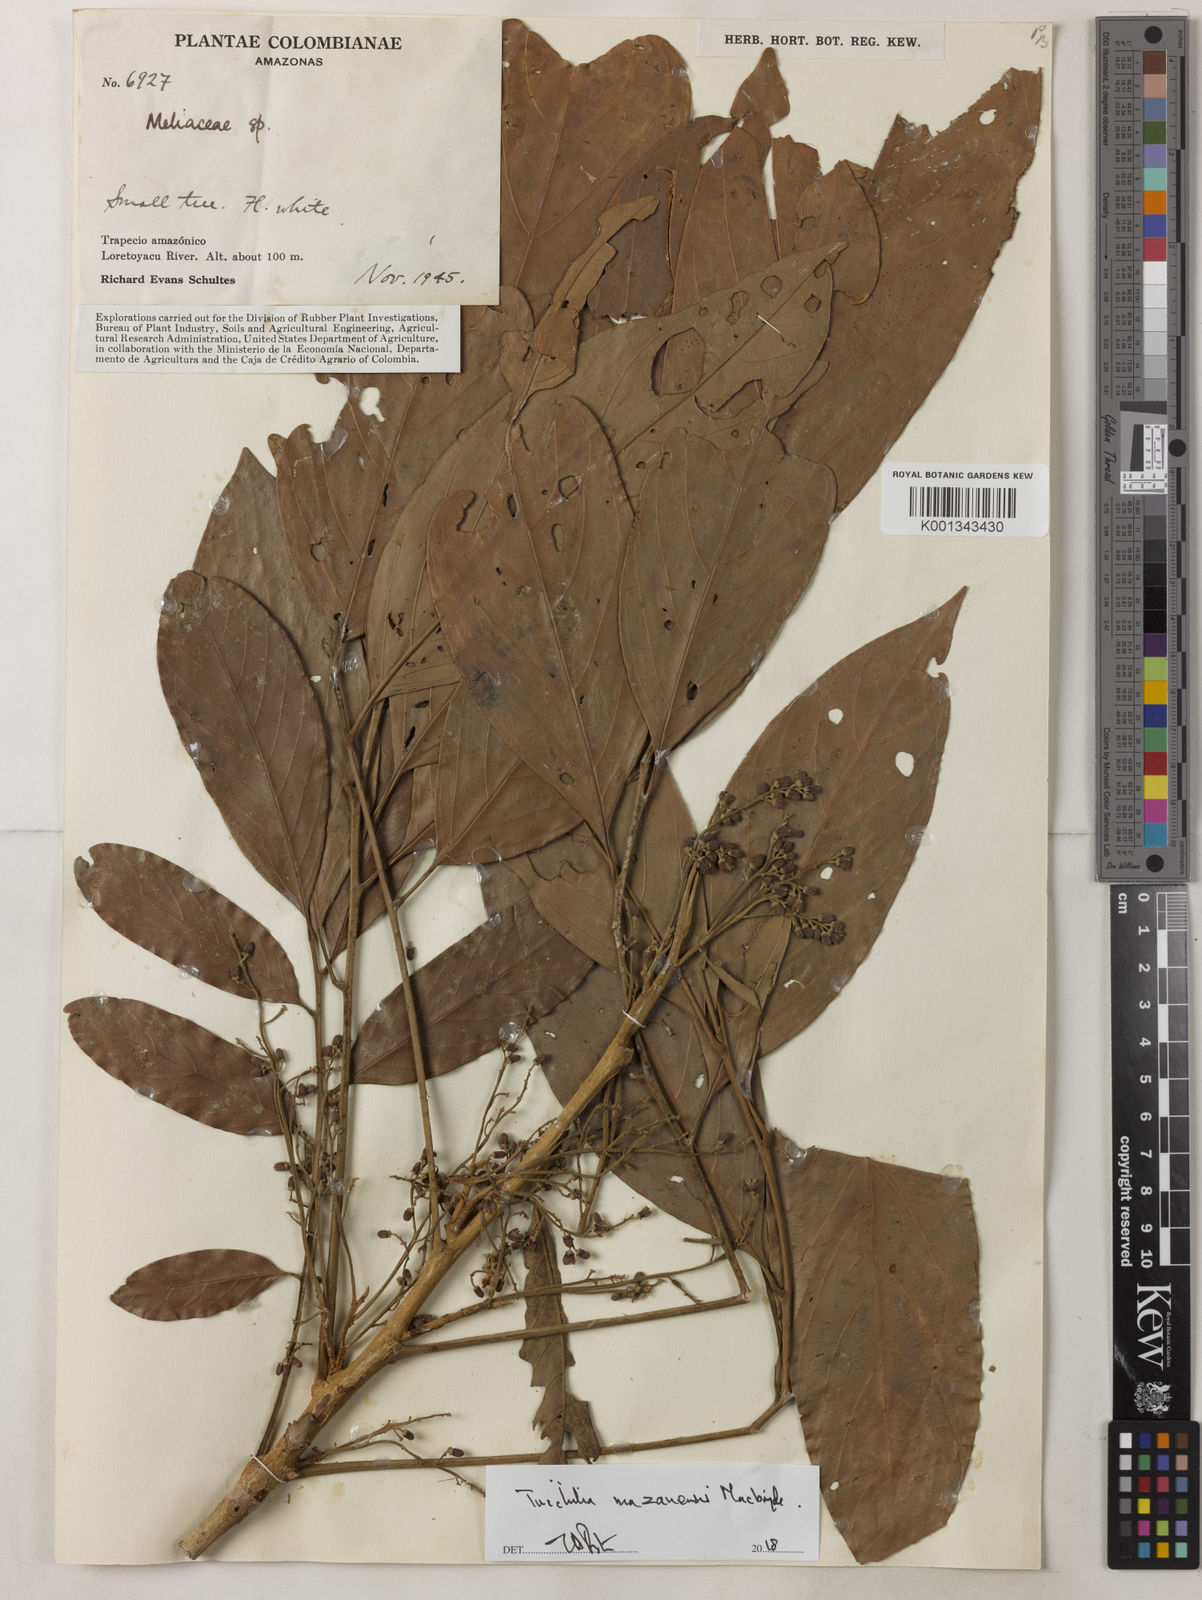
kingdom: Plantae
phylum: Tracheophyta
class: Magnoliopsida
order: Sapindales
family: Meliaceae
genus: Trichilia
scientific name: Trichilia mazanensis
